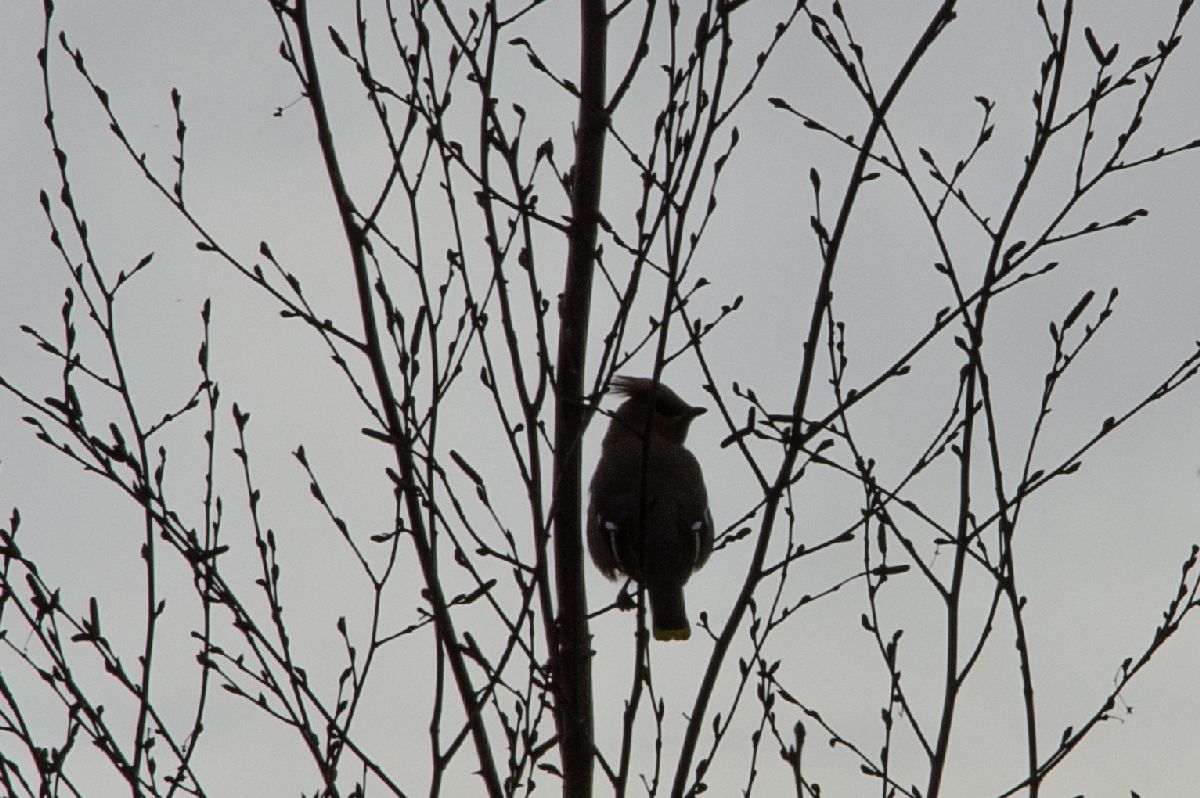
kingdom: Animalia
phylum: Chordata
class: Aves
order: Passeriformes
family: Bombycillidae
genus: Bombycilla
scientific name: Bombycilla garrulus
